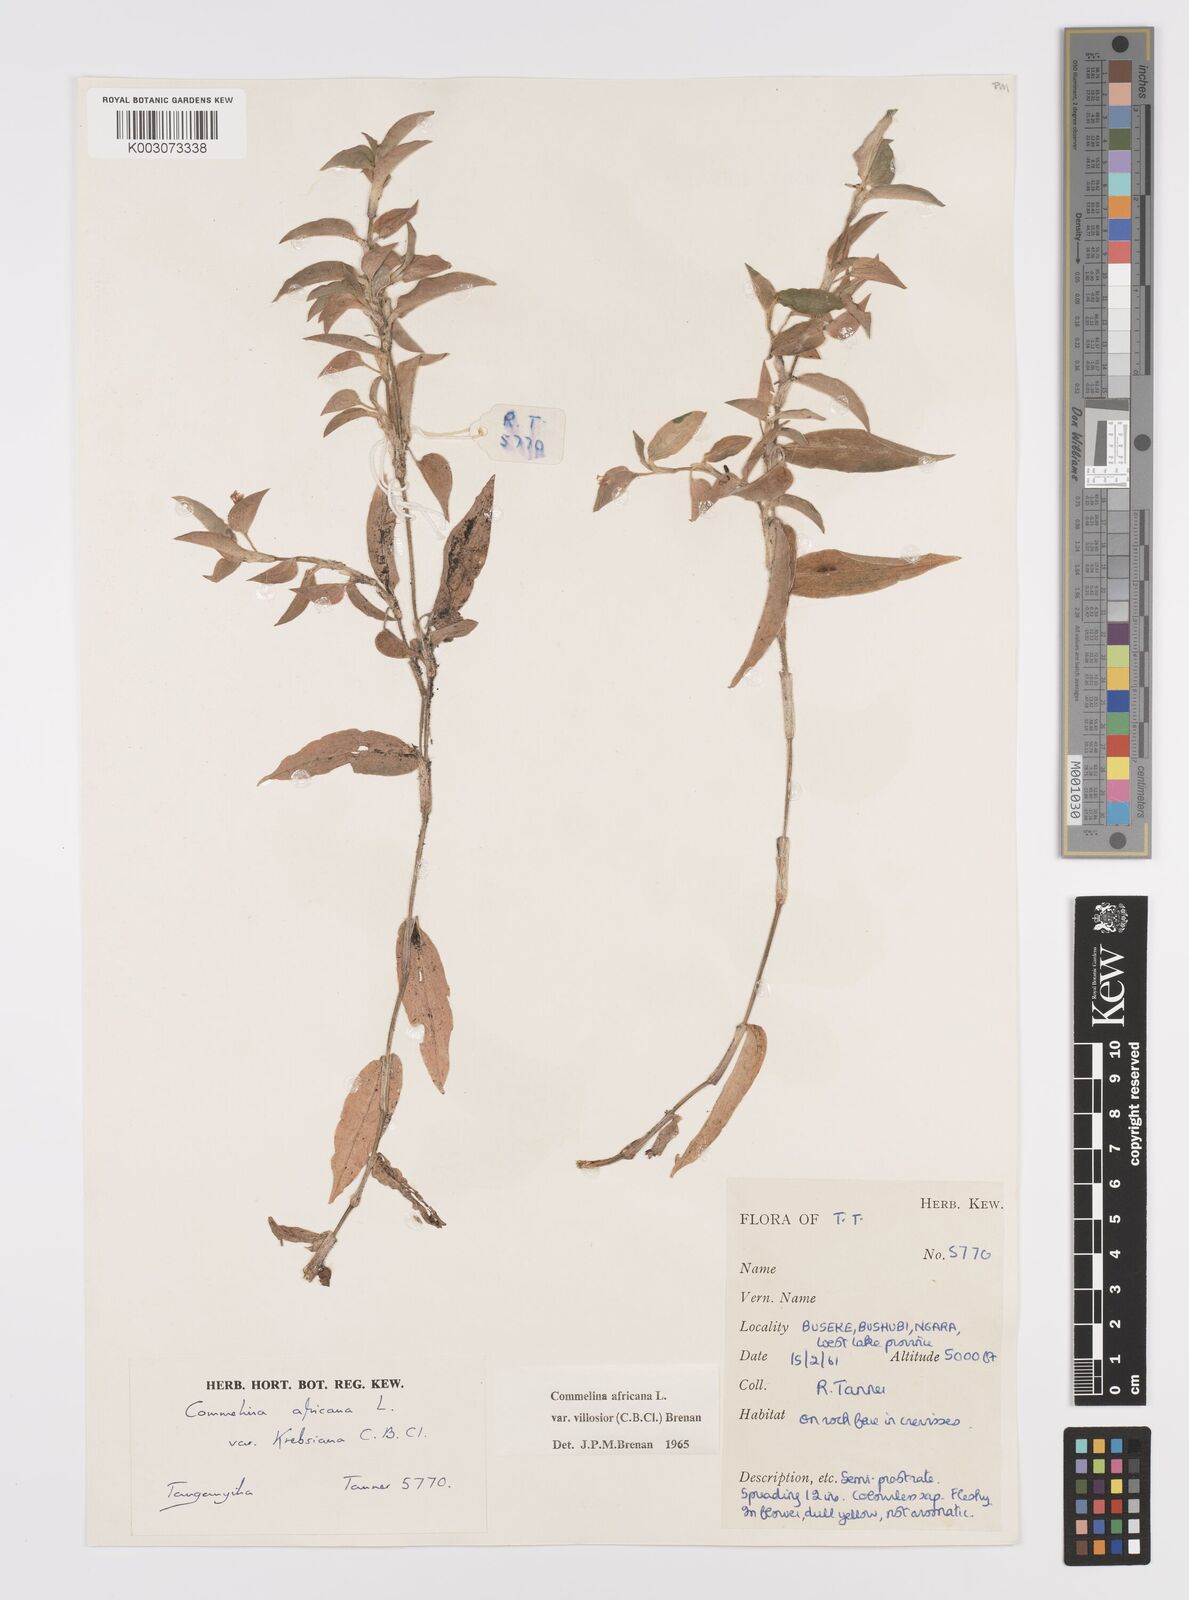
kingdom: Plantae
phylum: Tracheophyta
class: Liliopsida
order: Commelinales
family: Commelinaceae
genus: Commelina
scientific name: Commelina africana
